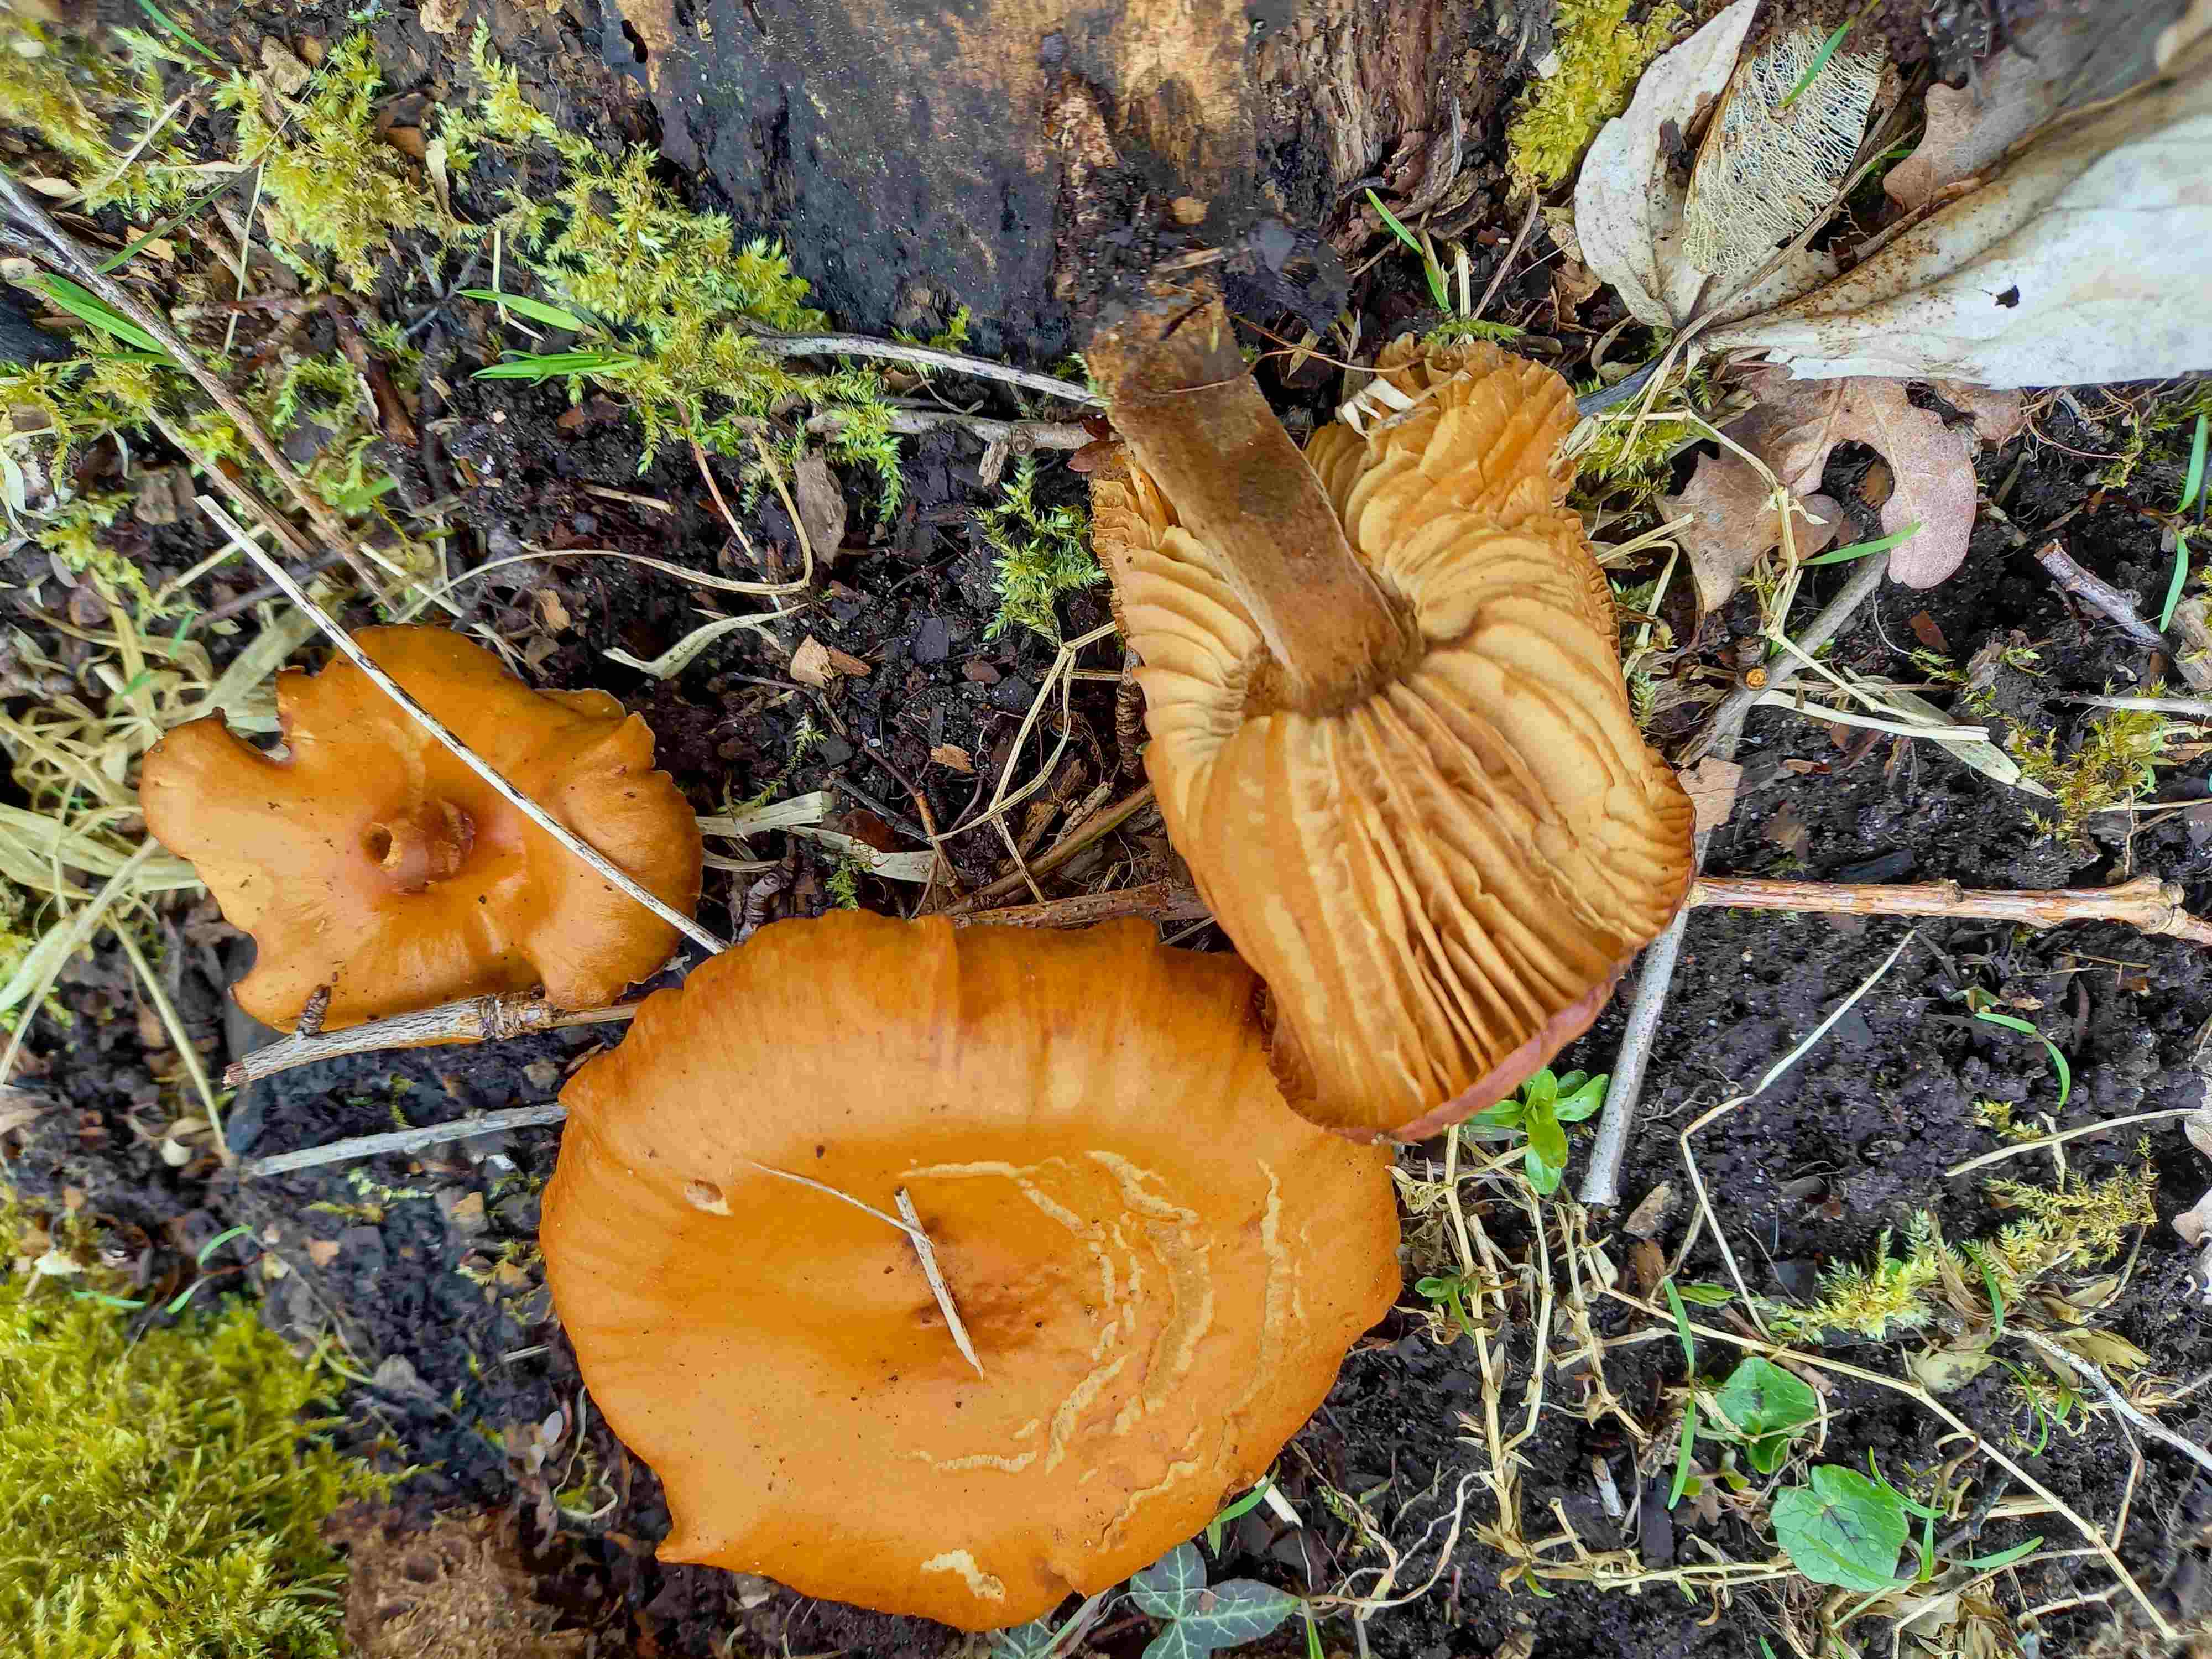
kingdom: Fungi
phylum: Basidiomycota
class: Agaricomycetes
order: Agaricales
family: Physalacriaceae
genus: Flammulina
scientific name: Flammulina
